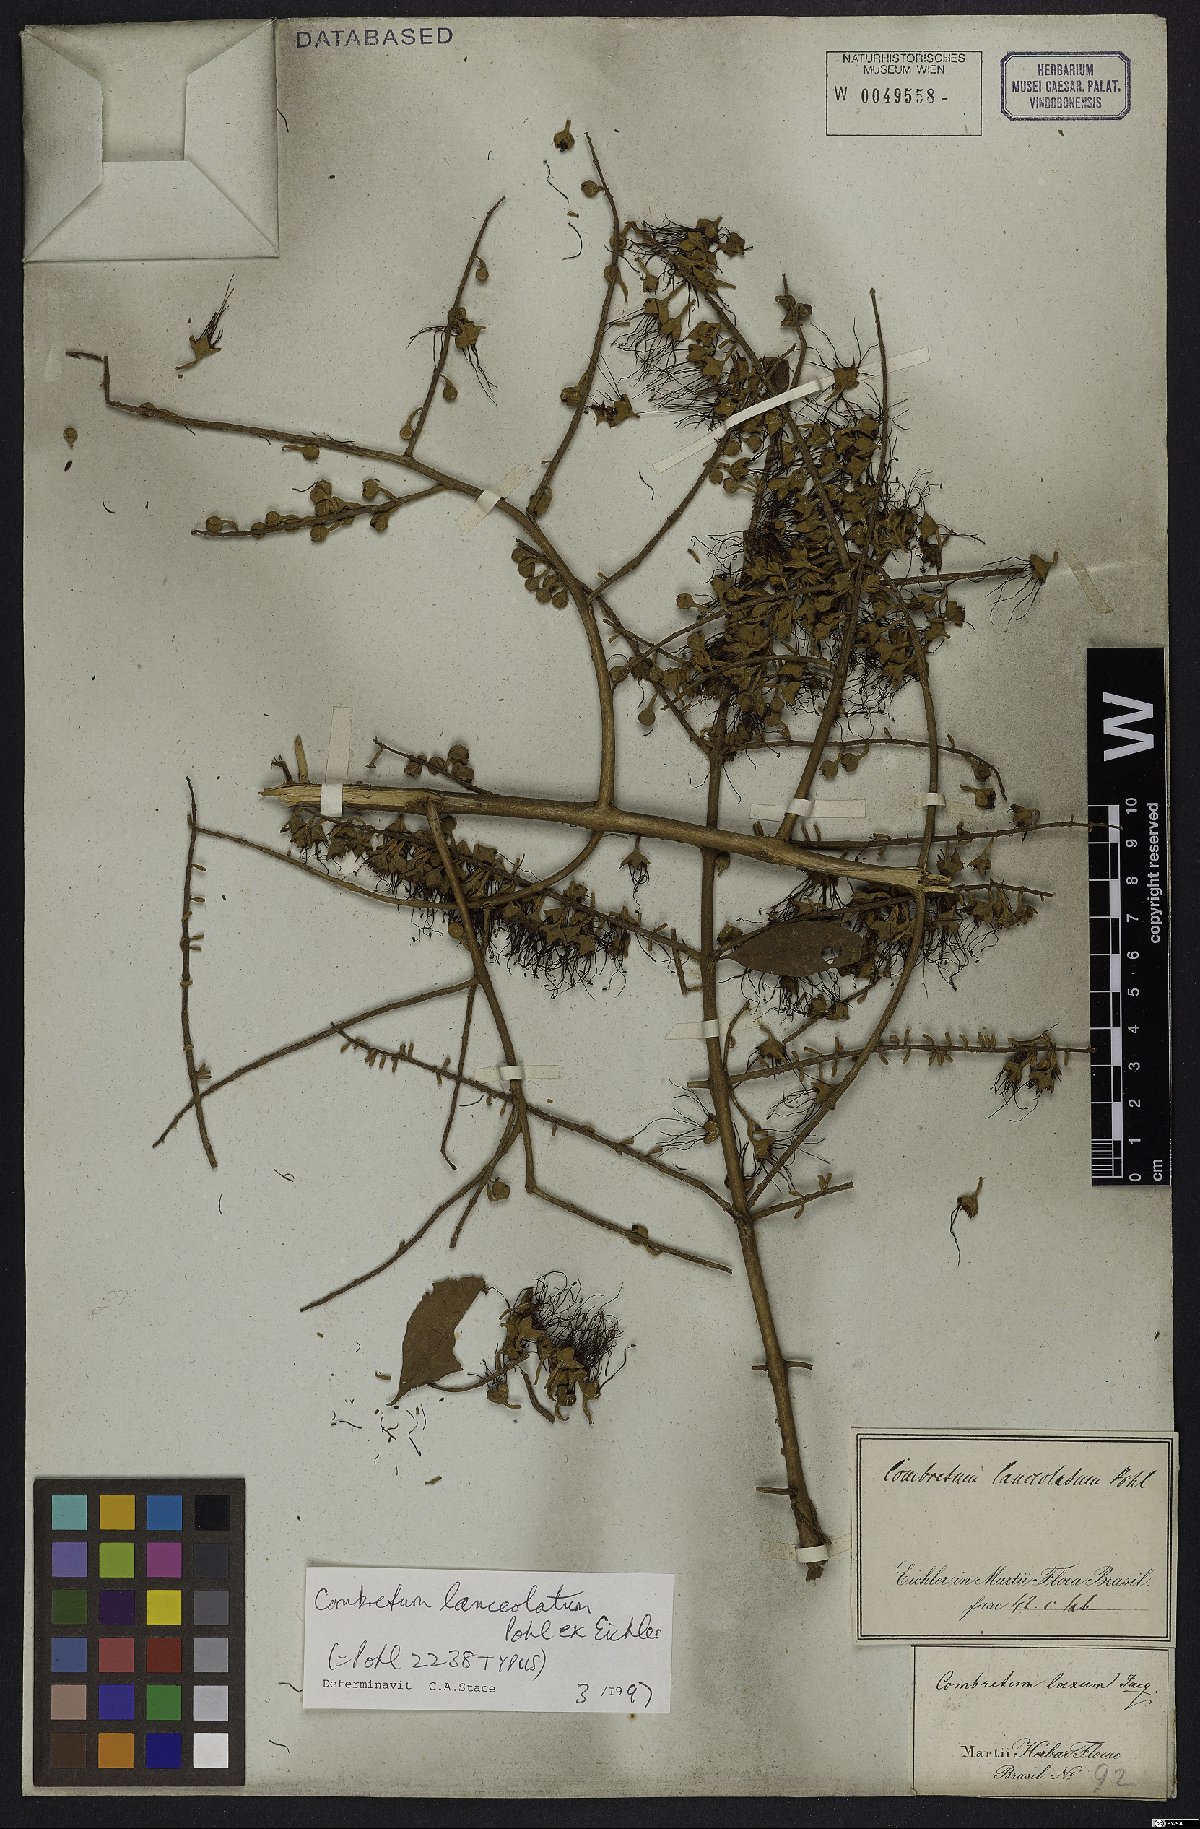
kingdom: Plantae
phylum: Tracheophyta
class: Magnoliopsida
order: Myrtales
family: Combretaceae
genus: Combretum
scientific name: Combretum lanceolatum
